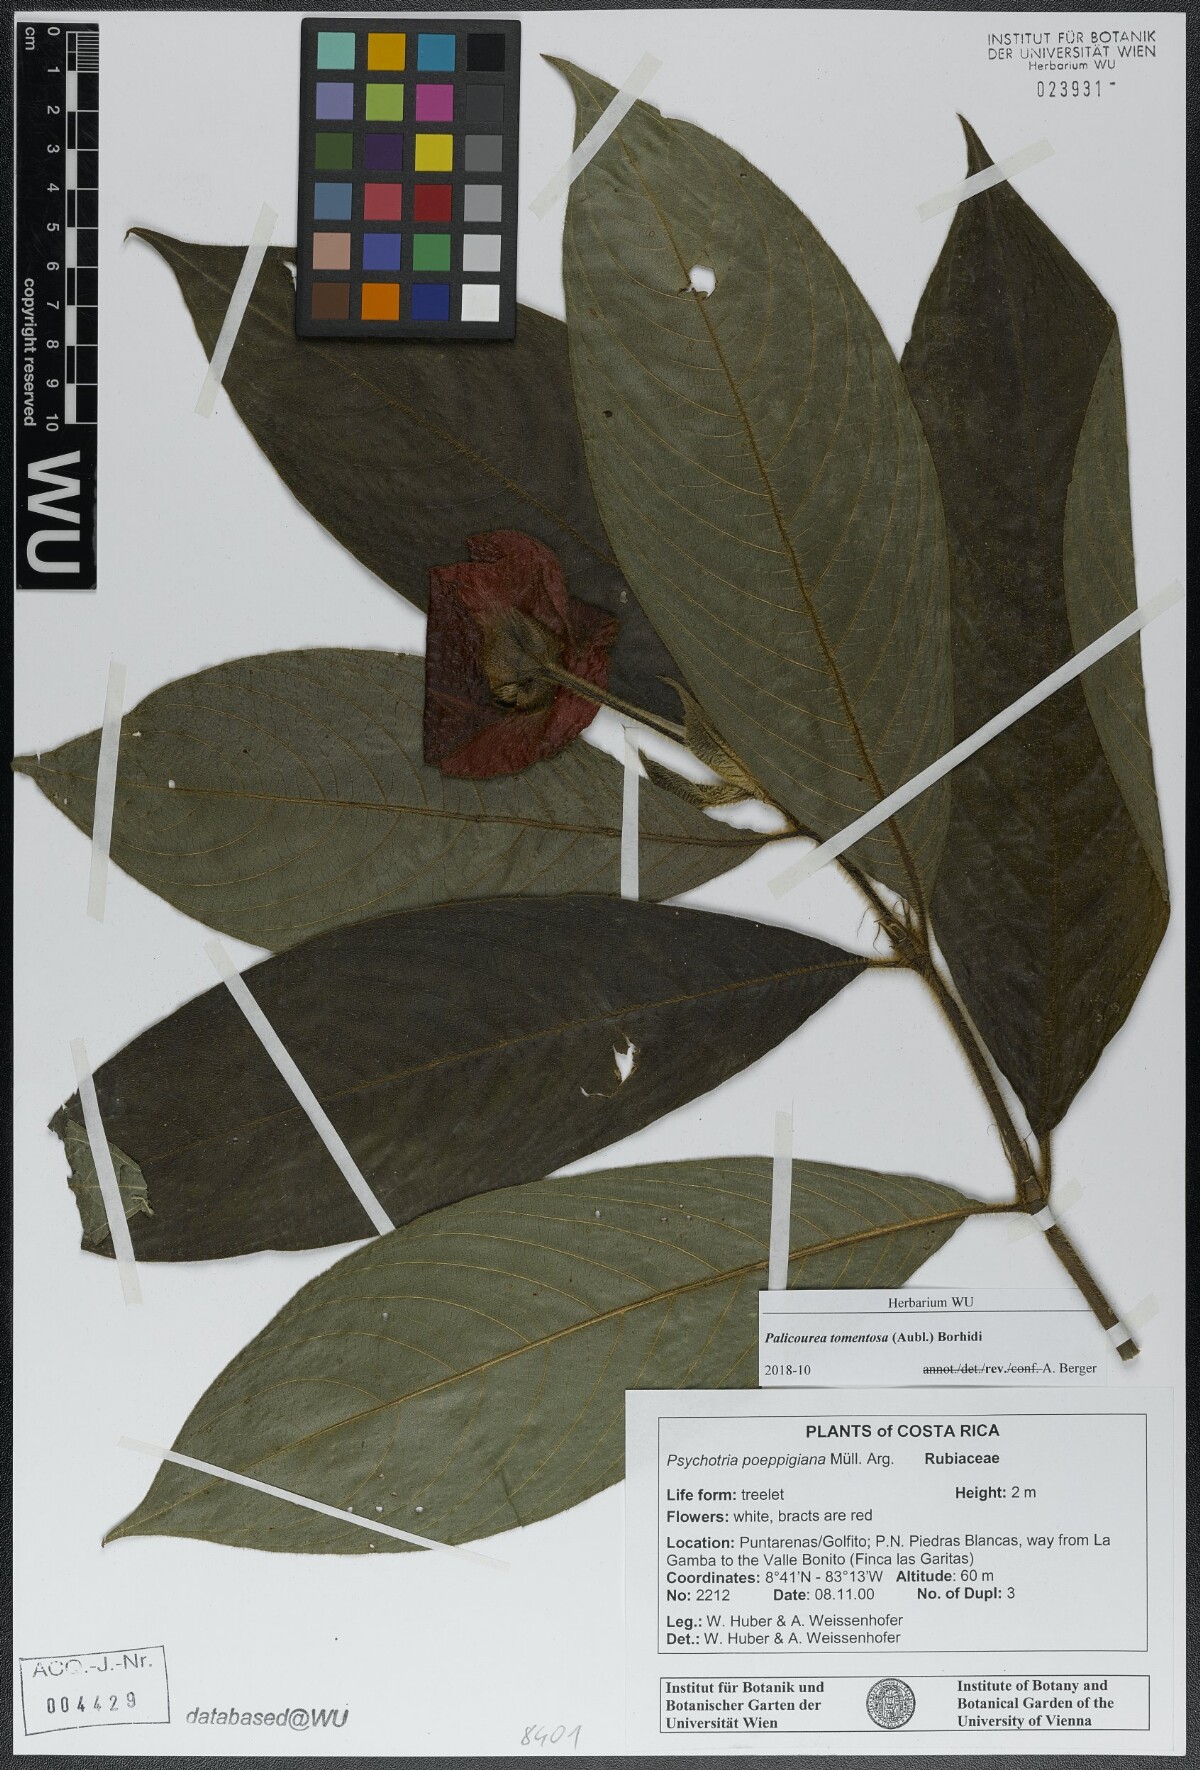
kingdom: Plantae
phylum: Tracheophyta
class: Magnoliopsida
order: Gentianales
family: Rubiaceae
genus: Palicourea
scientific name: Palicourea tomentosa
